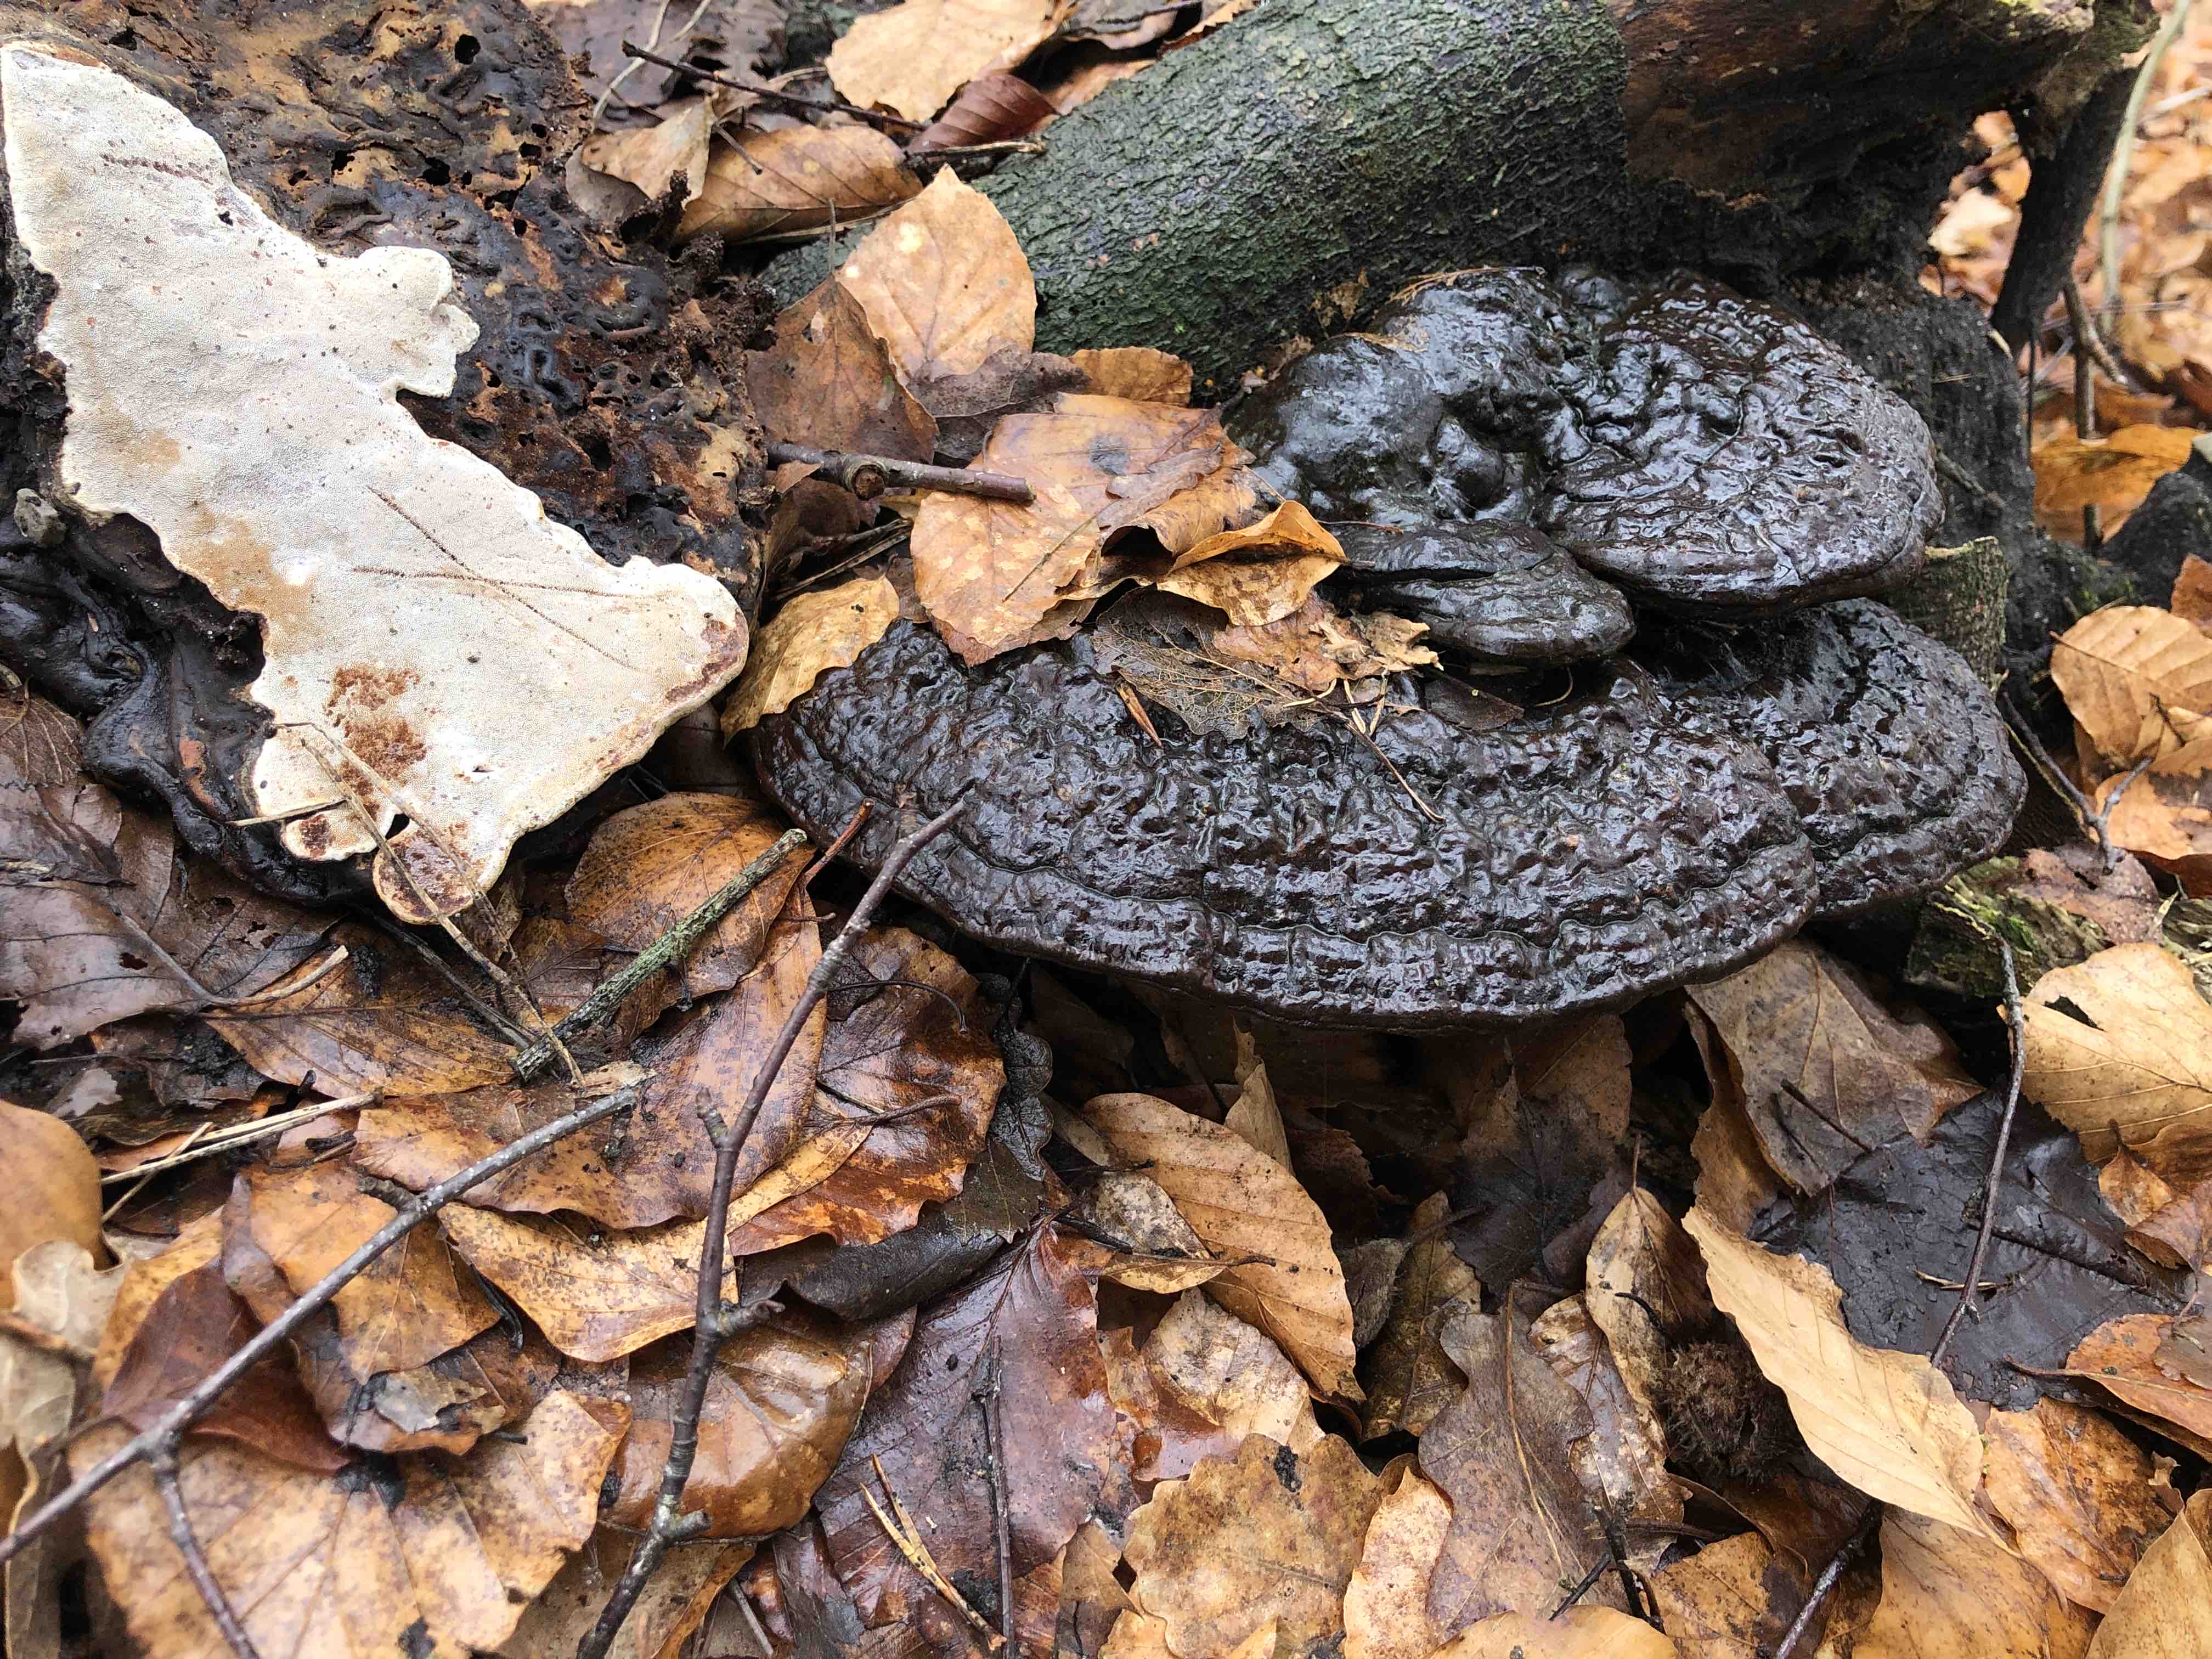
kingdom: Fungi
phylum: Basidiomycota
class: Agaricomycetes
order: Polyporales
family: Polyporaceae
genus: Ganoderma
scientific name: Ganoderma applanatum
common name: flad lakporesvamp
